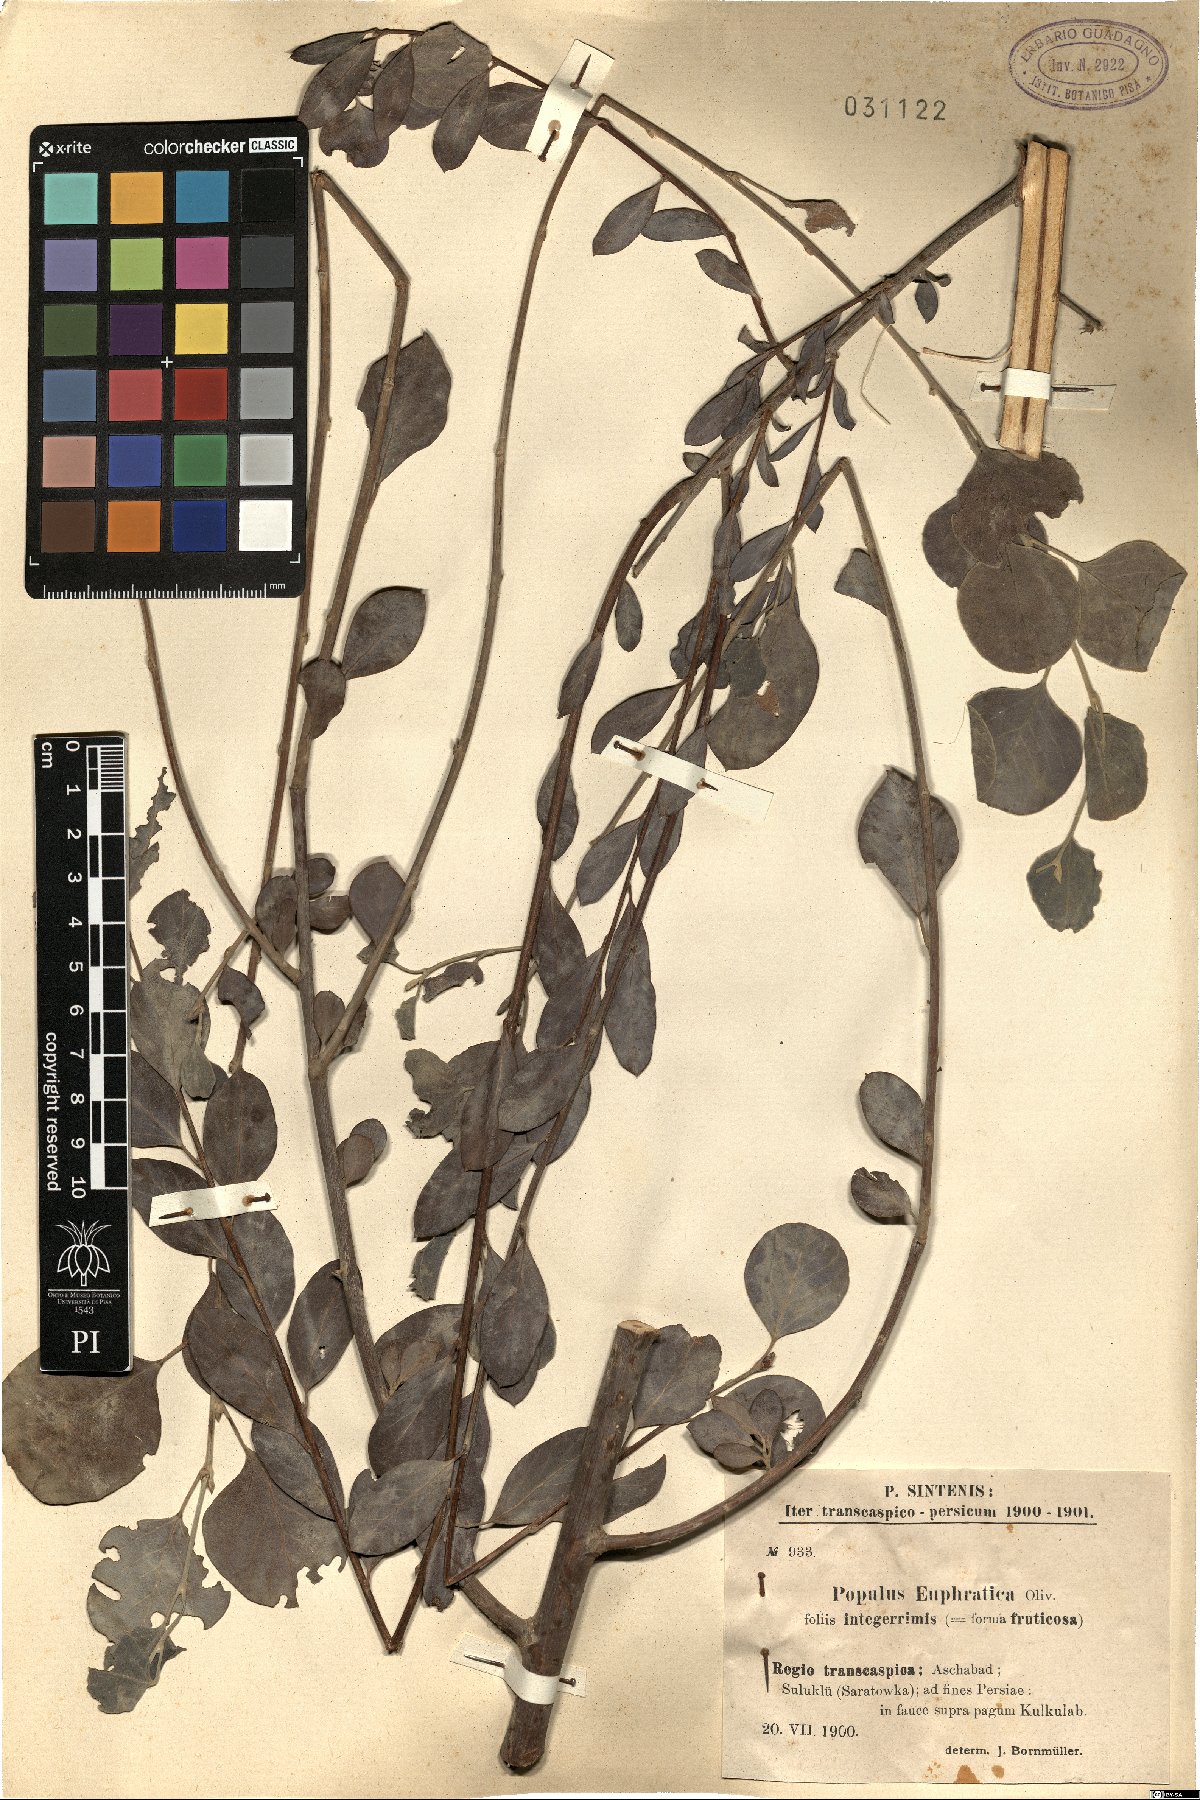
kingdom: Plantae
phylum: Tracheophyta
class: Magnoliopsida
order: Malpighiales
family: Salicaceae
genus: Populus
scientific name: Populus euphratica
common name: Euphrates poplar
